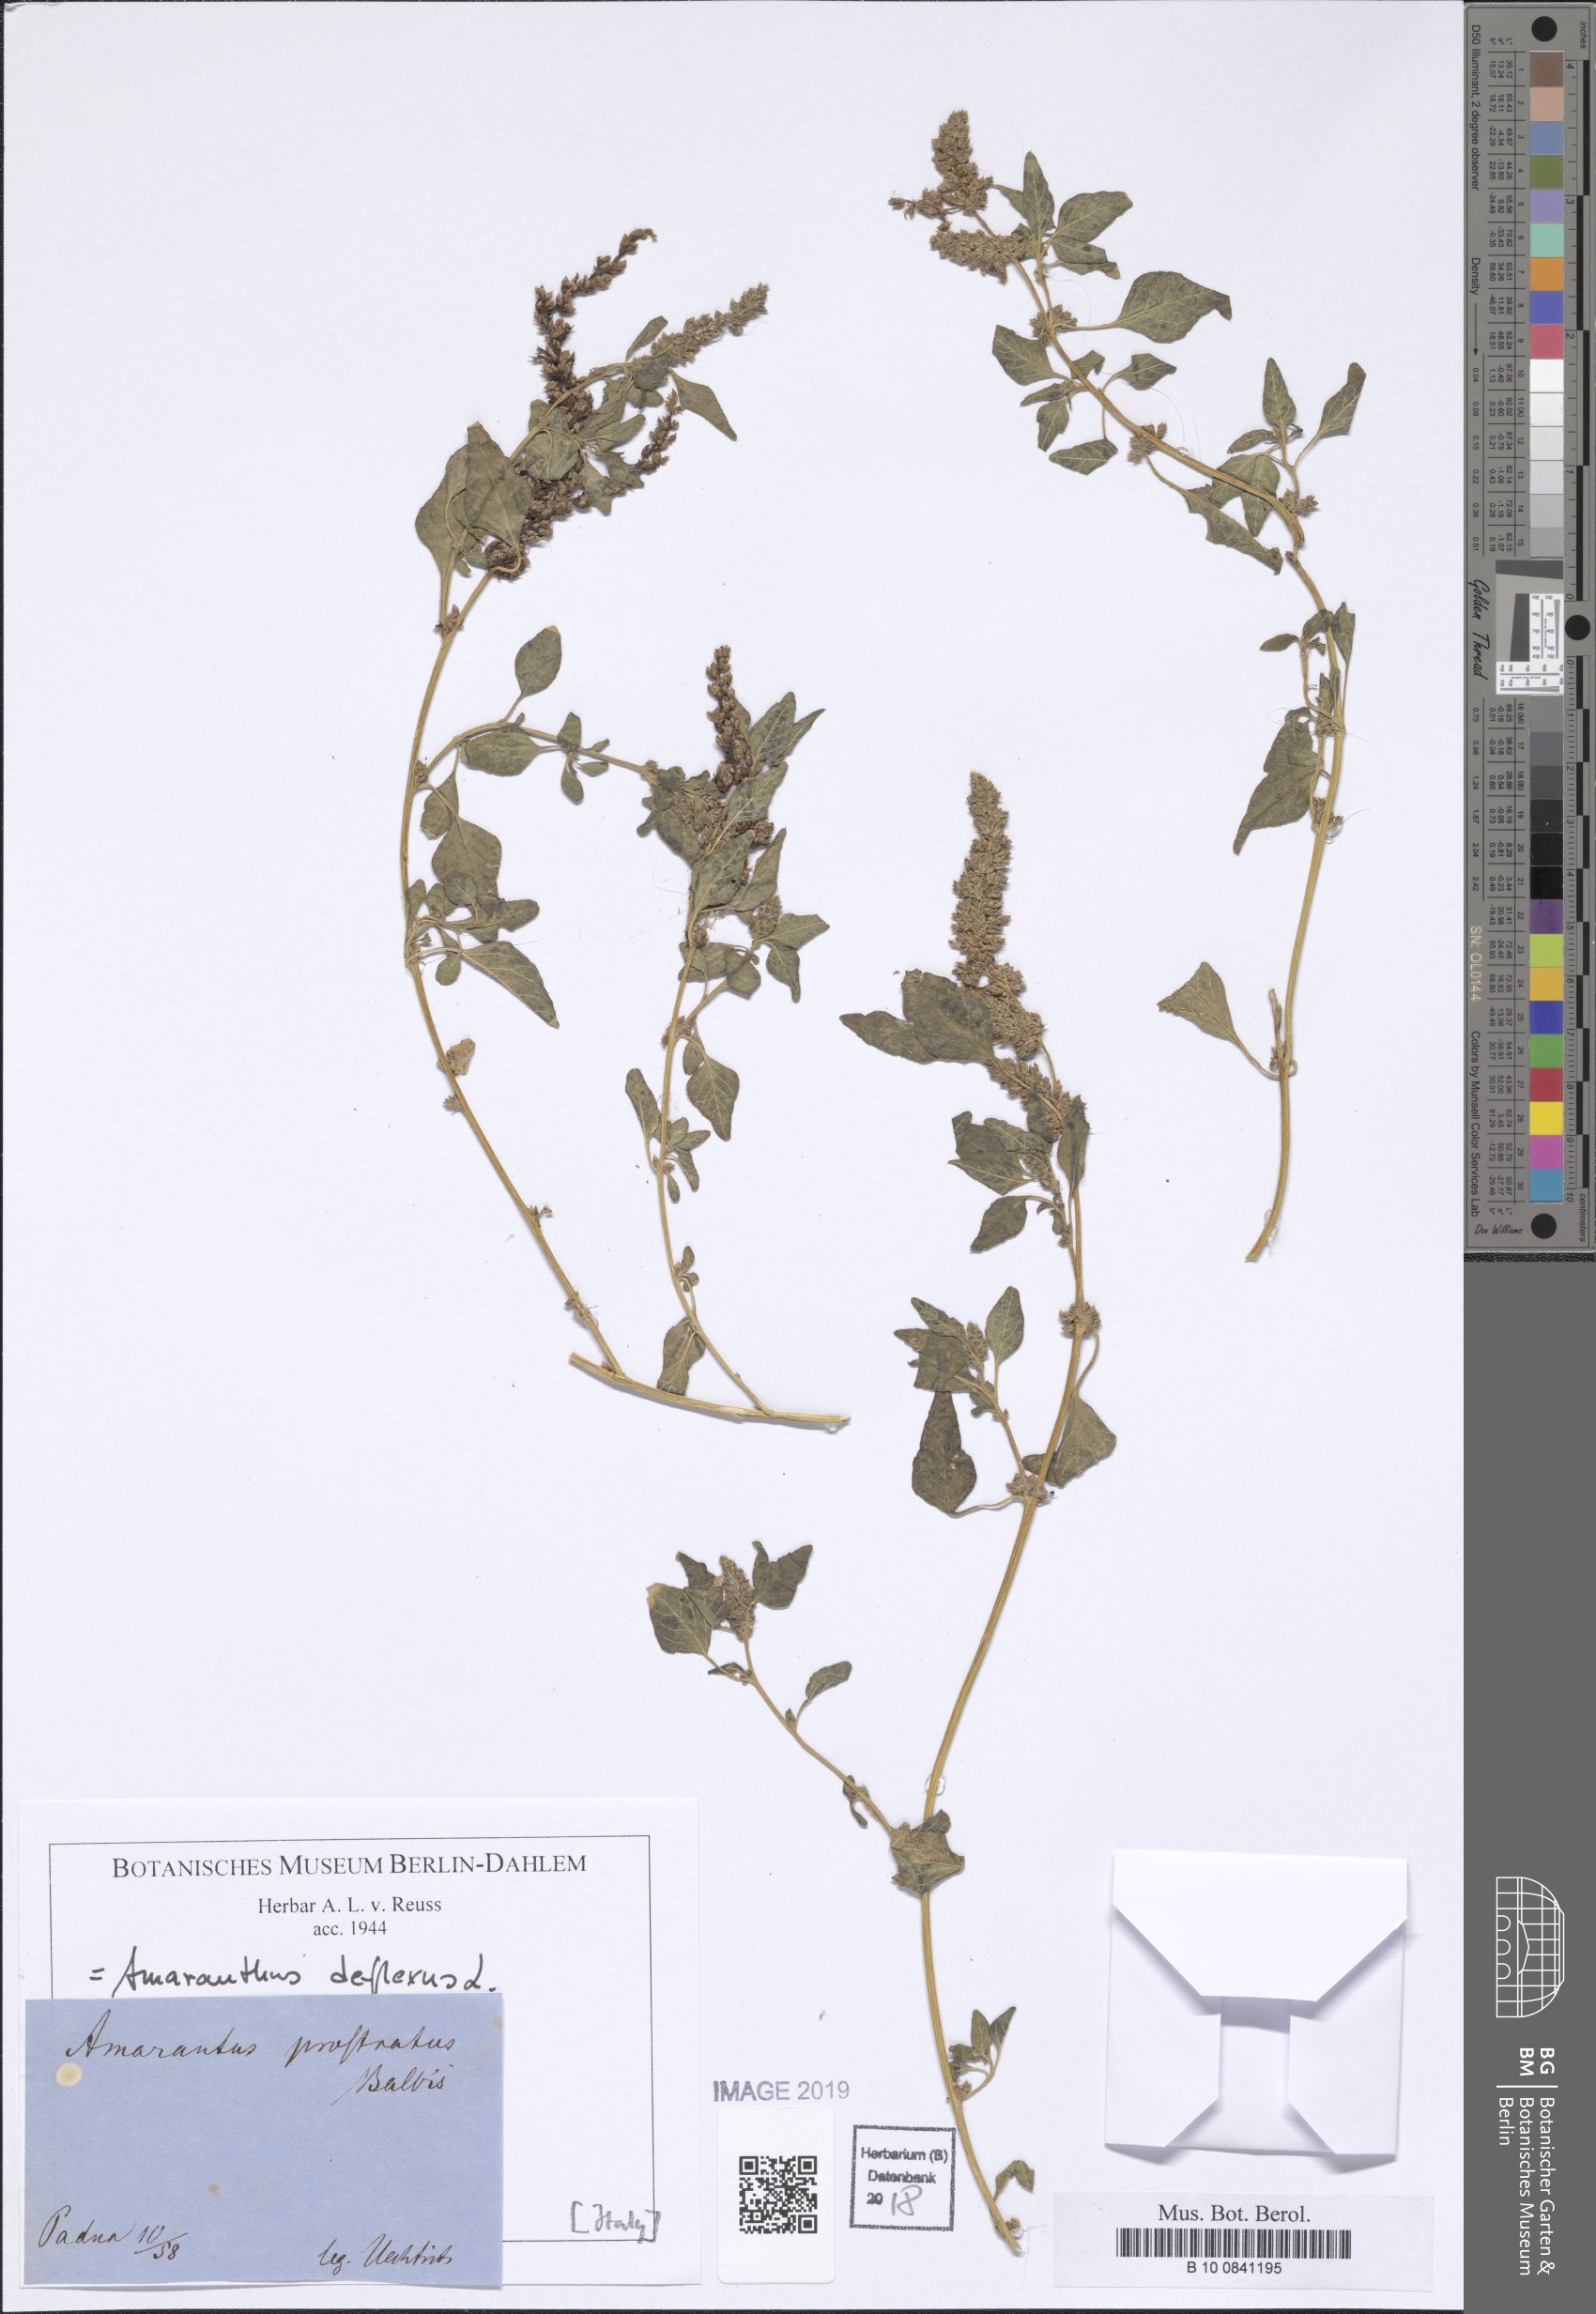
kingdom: Plantae
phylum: Tracheophyta
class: Magnoliopsida
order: Caryophyllales
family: Amaranthaceae
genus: Amaranthus
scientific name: Amaranthus deflexus
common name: Perennial pigweed
